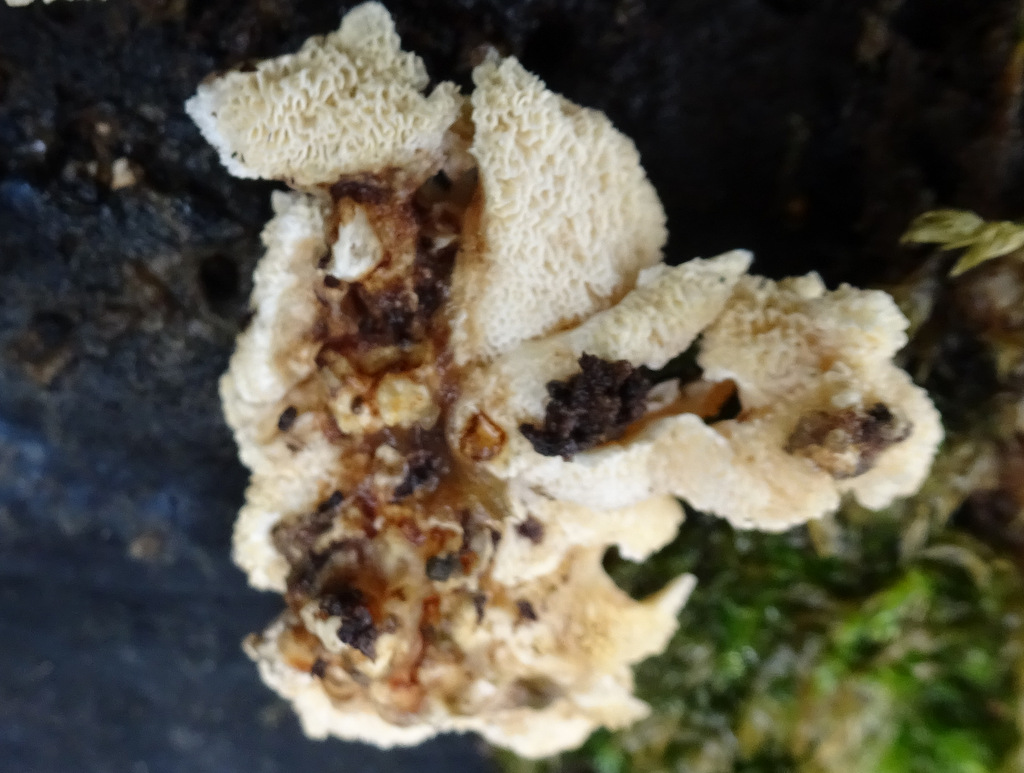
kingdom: Fungi
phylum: Basidiomycota
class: Agaricomycetes
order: Polyporales
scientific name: Polyporales
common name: poresvampordenen
